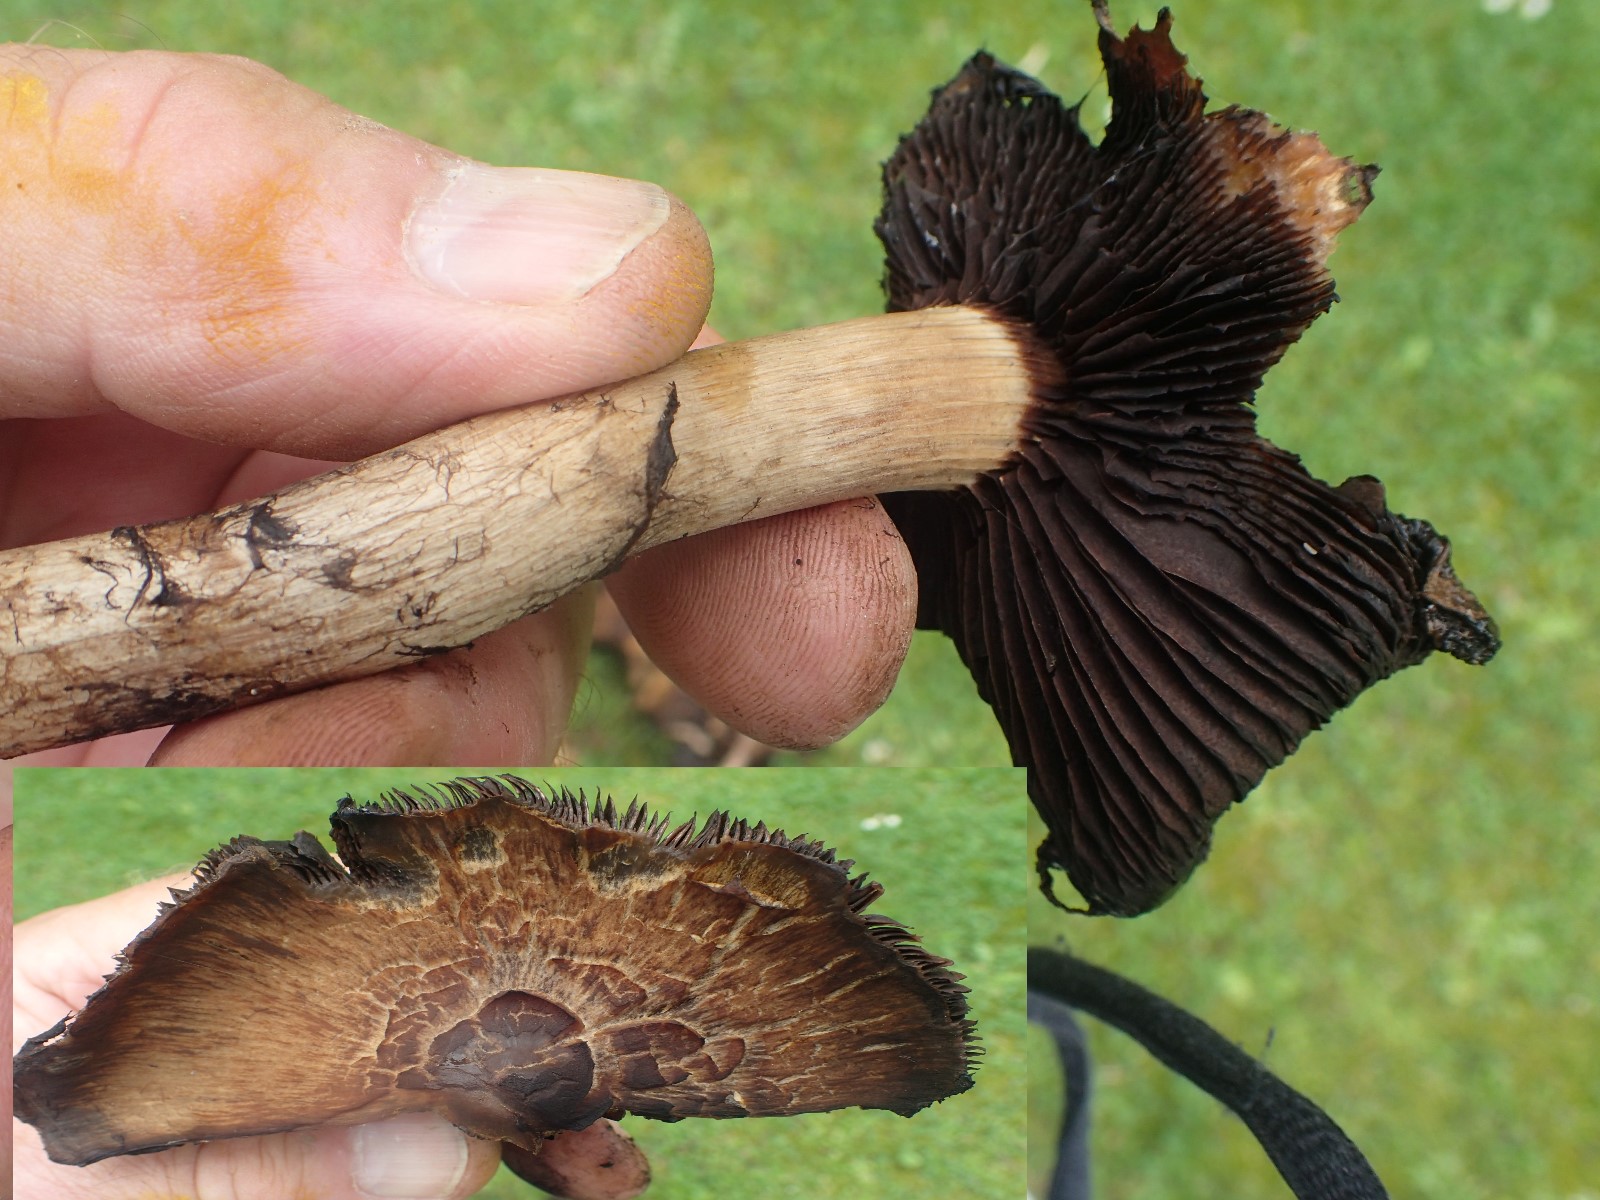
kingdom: Fungi
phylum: Basidiomycota
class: Agaricomycetes
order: Agaricales
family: Psathyrellaceae
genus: Lacrymaria
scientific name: Lacrymaria lacrymabunda
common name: grædende mørkhat
